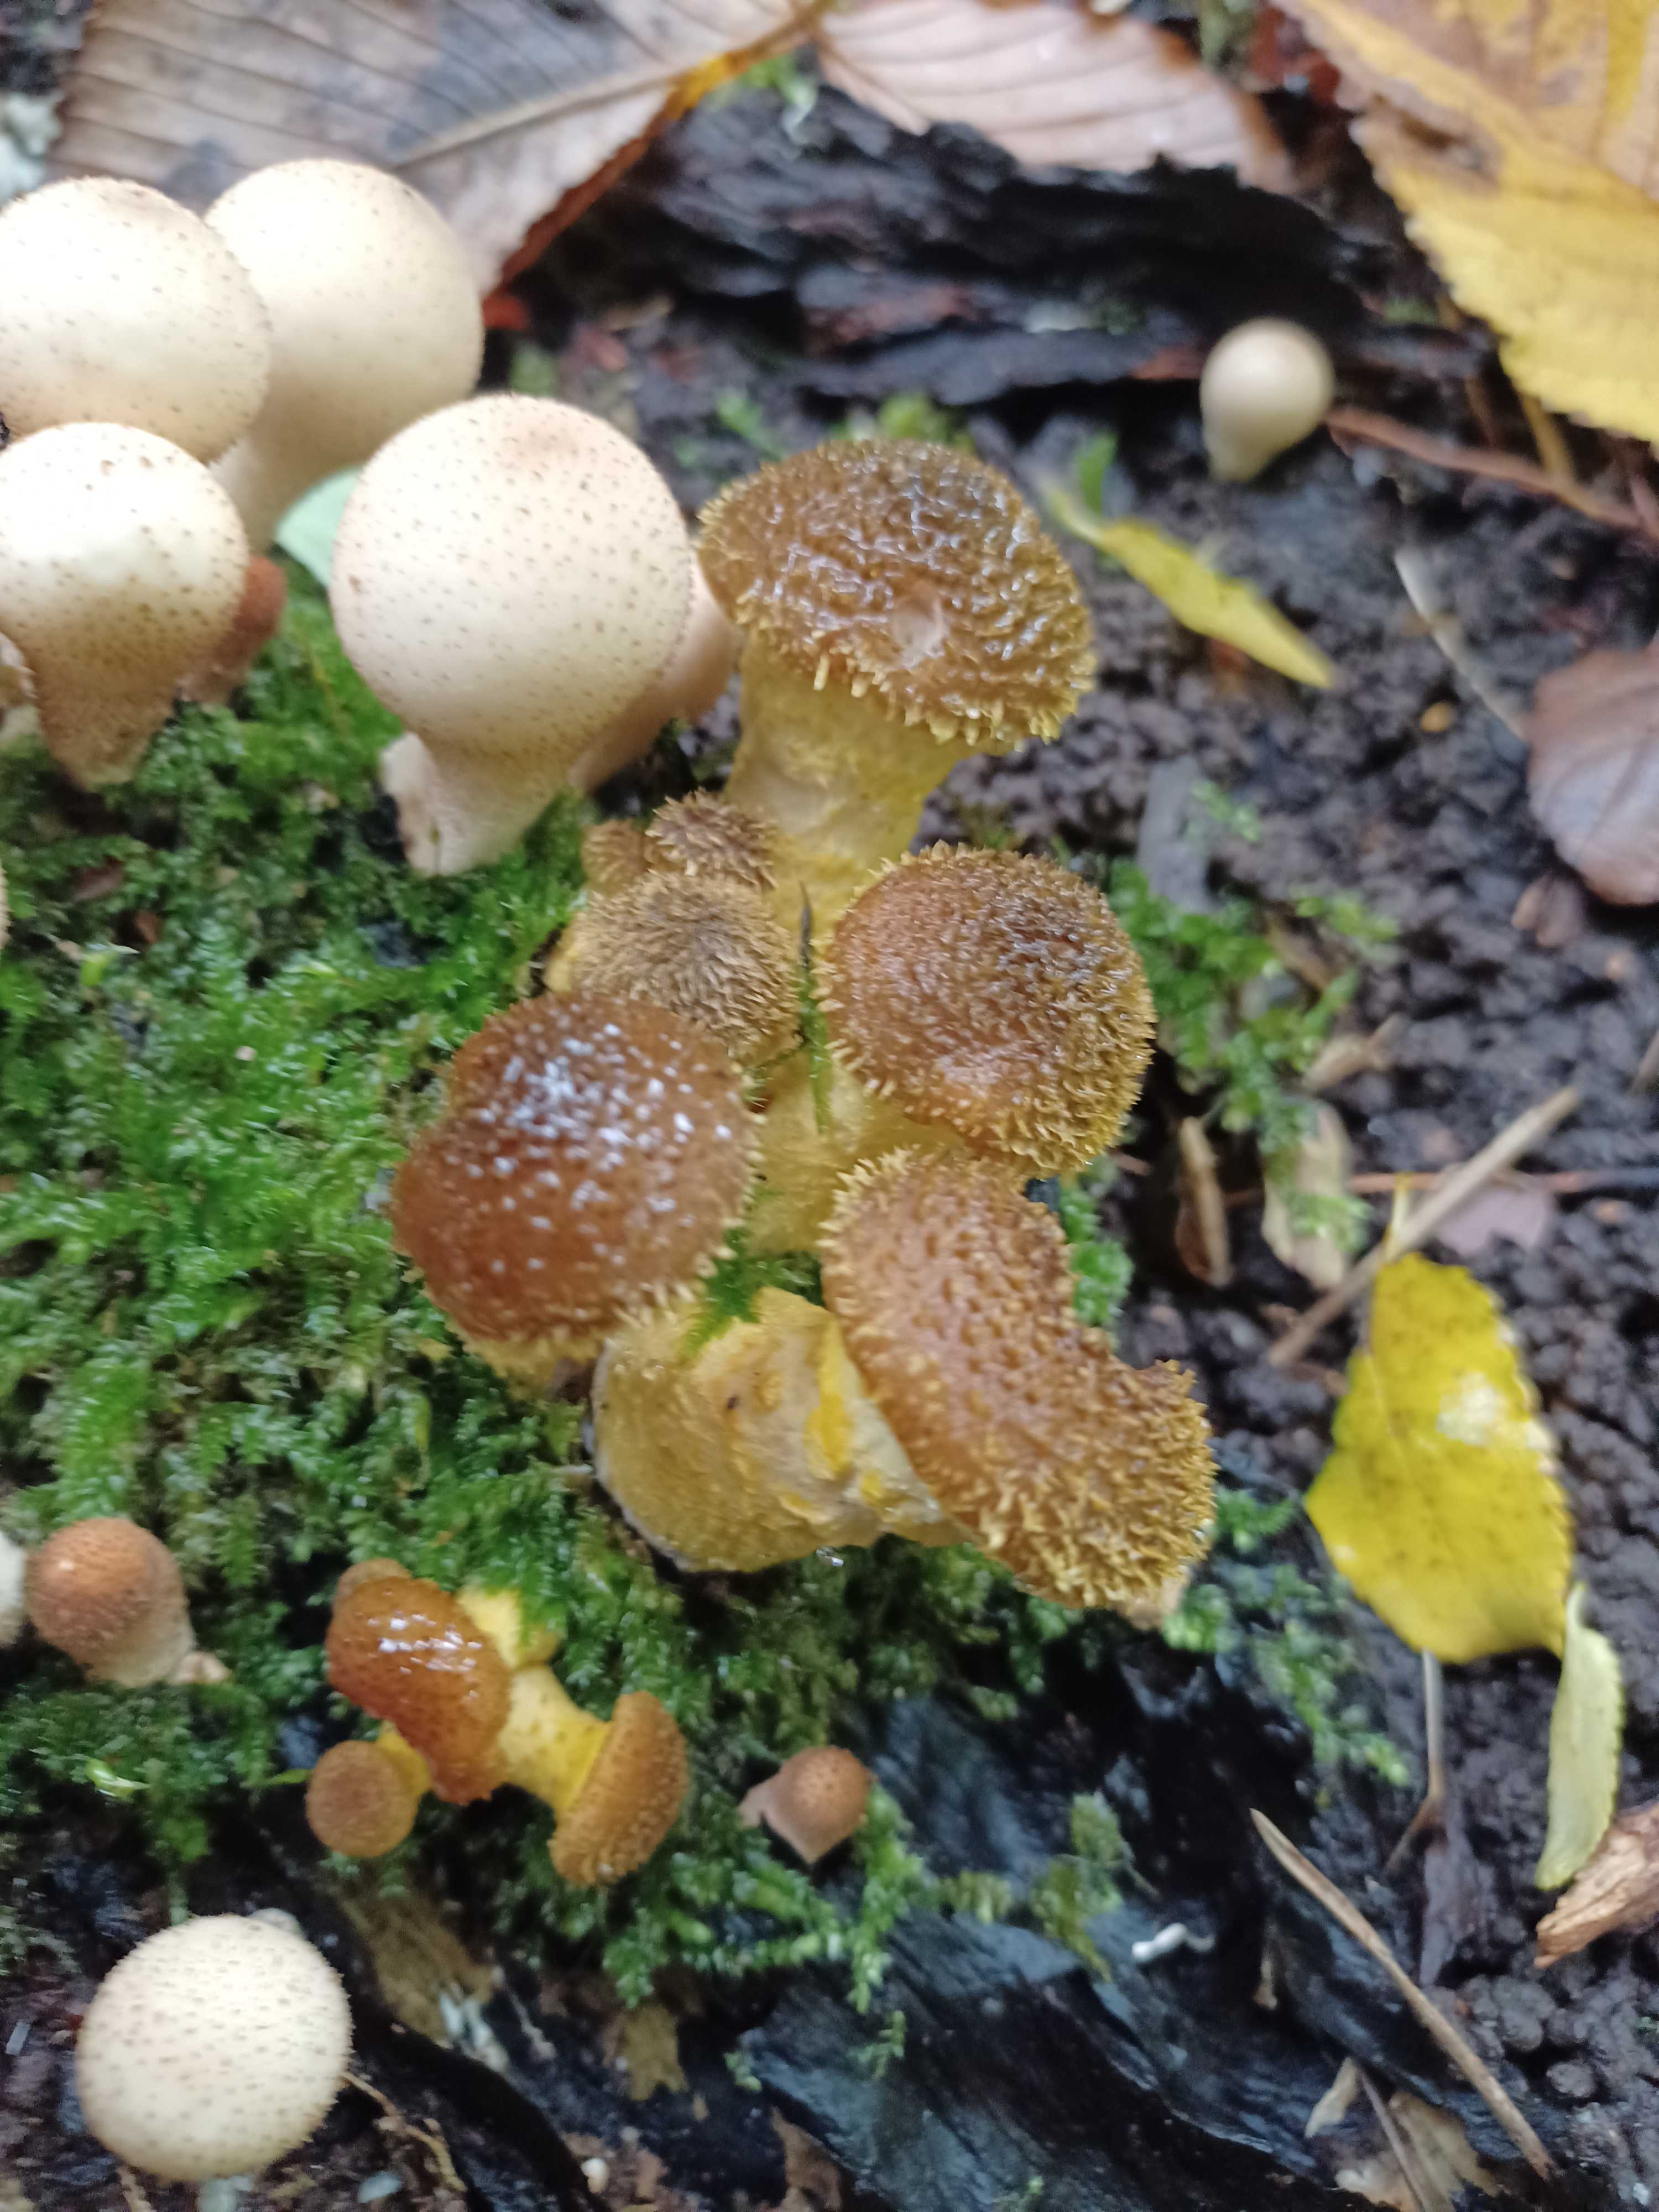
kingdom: Fungi
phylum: Basidiomycota
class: Agaricomycetes
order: Agaricales
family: Physalacriaceae
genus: Armillaria
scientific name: Armillaria lutea
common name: køllestokket honningsvamp
